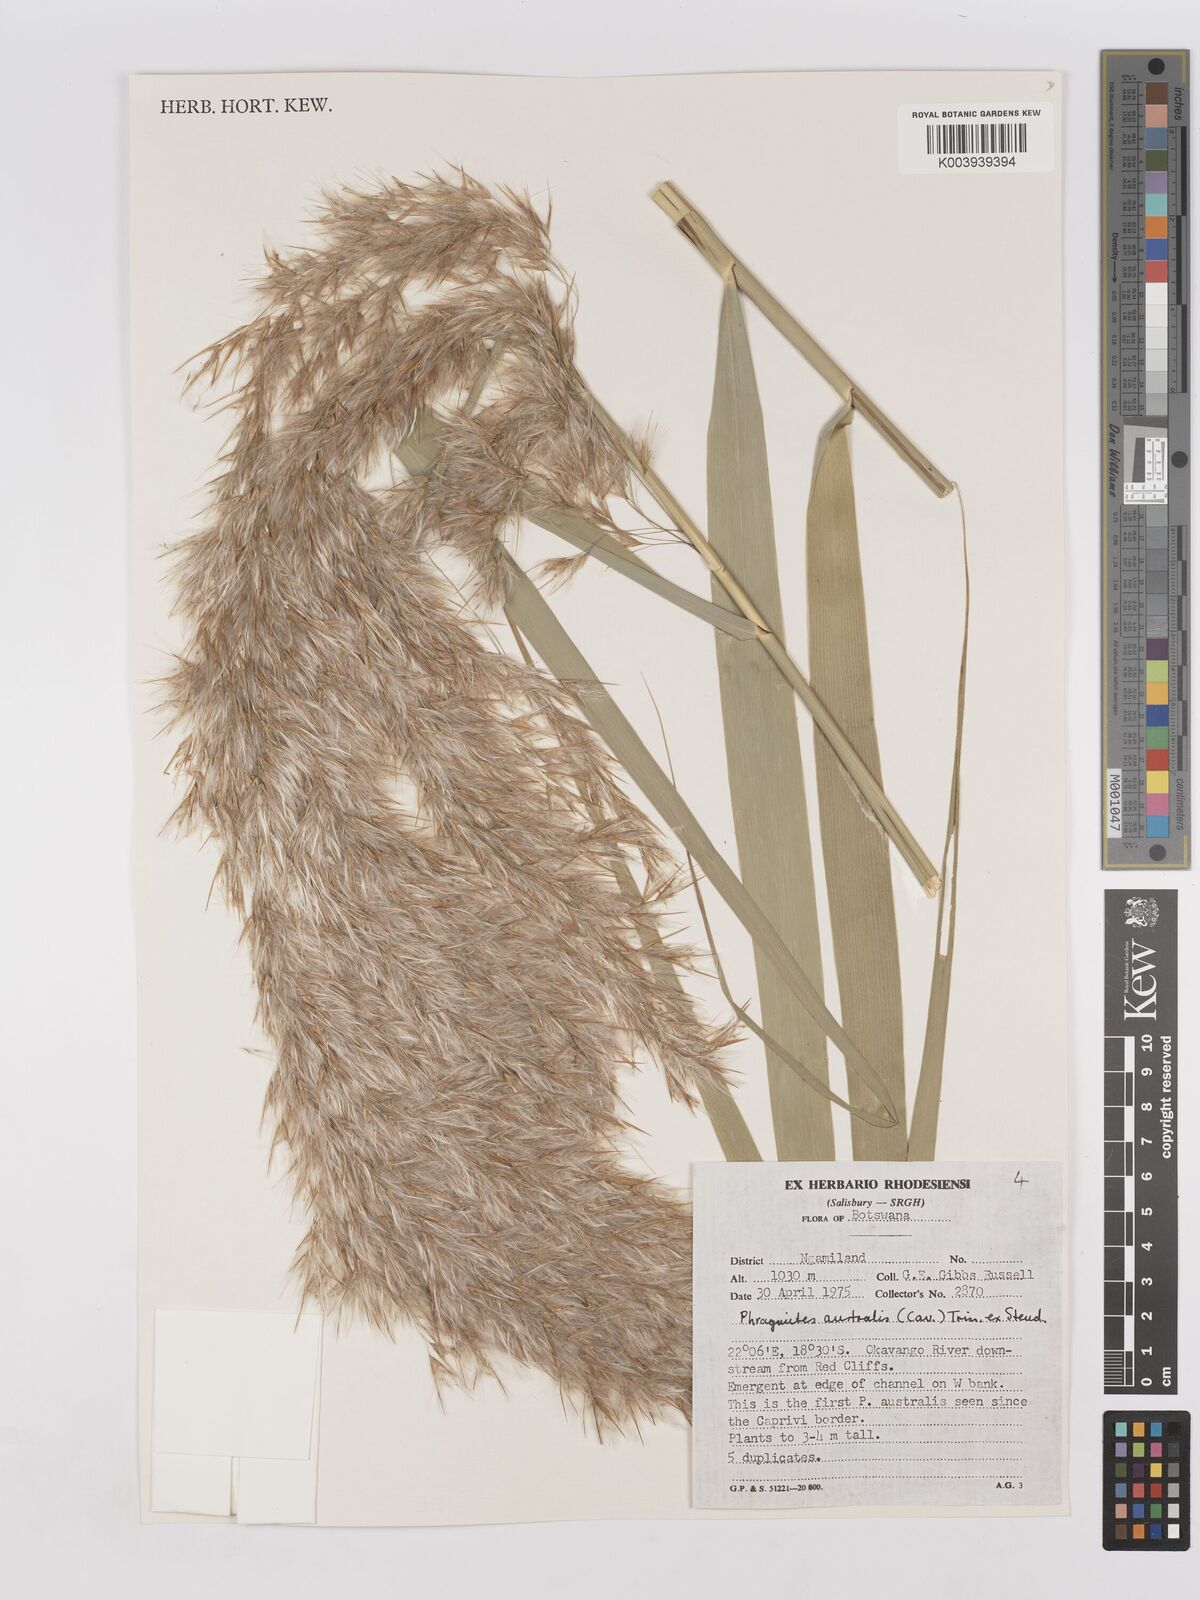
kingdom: Plantae
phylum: Tracheophyta
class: Liliopsida
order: Poales
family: Poaceae
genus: Phragmites
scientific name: Phragmites australis
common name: Common reed
